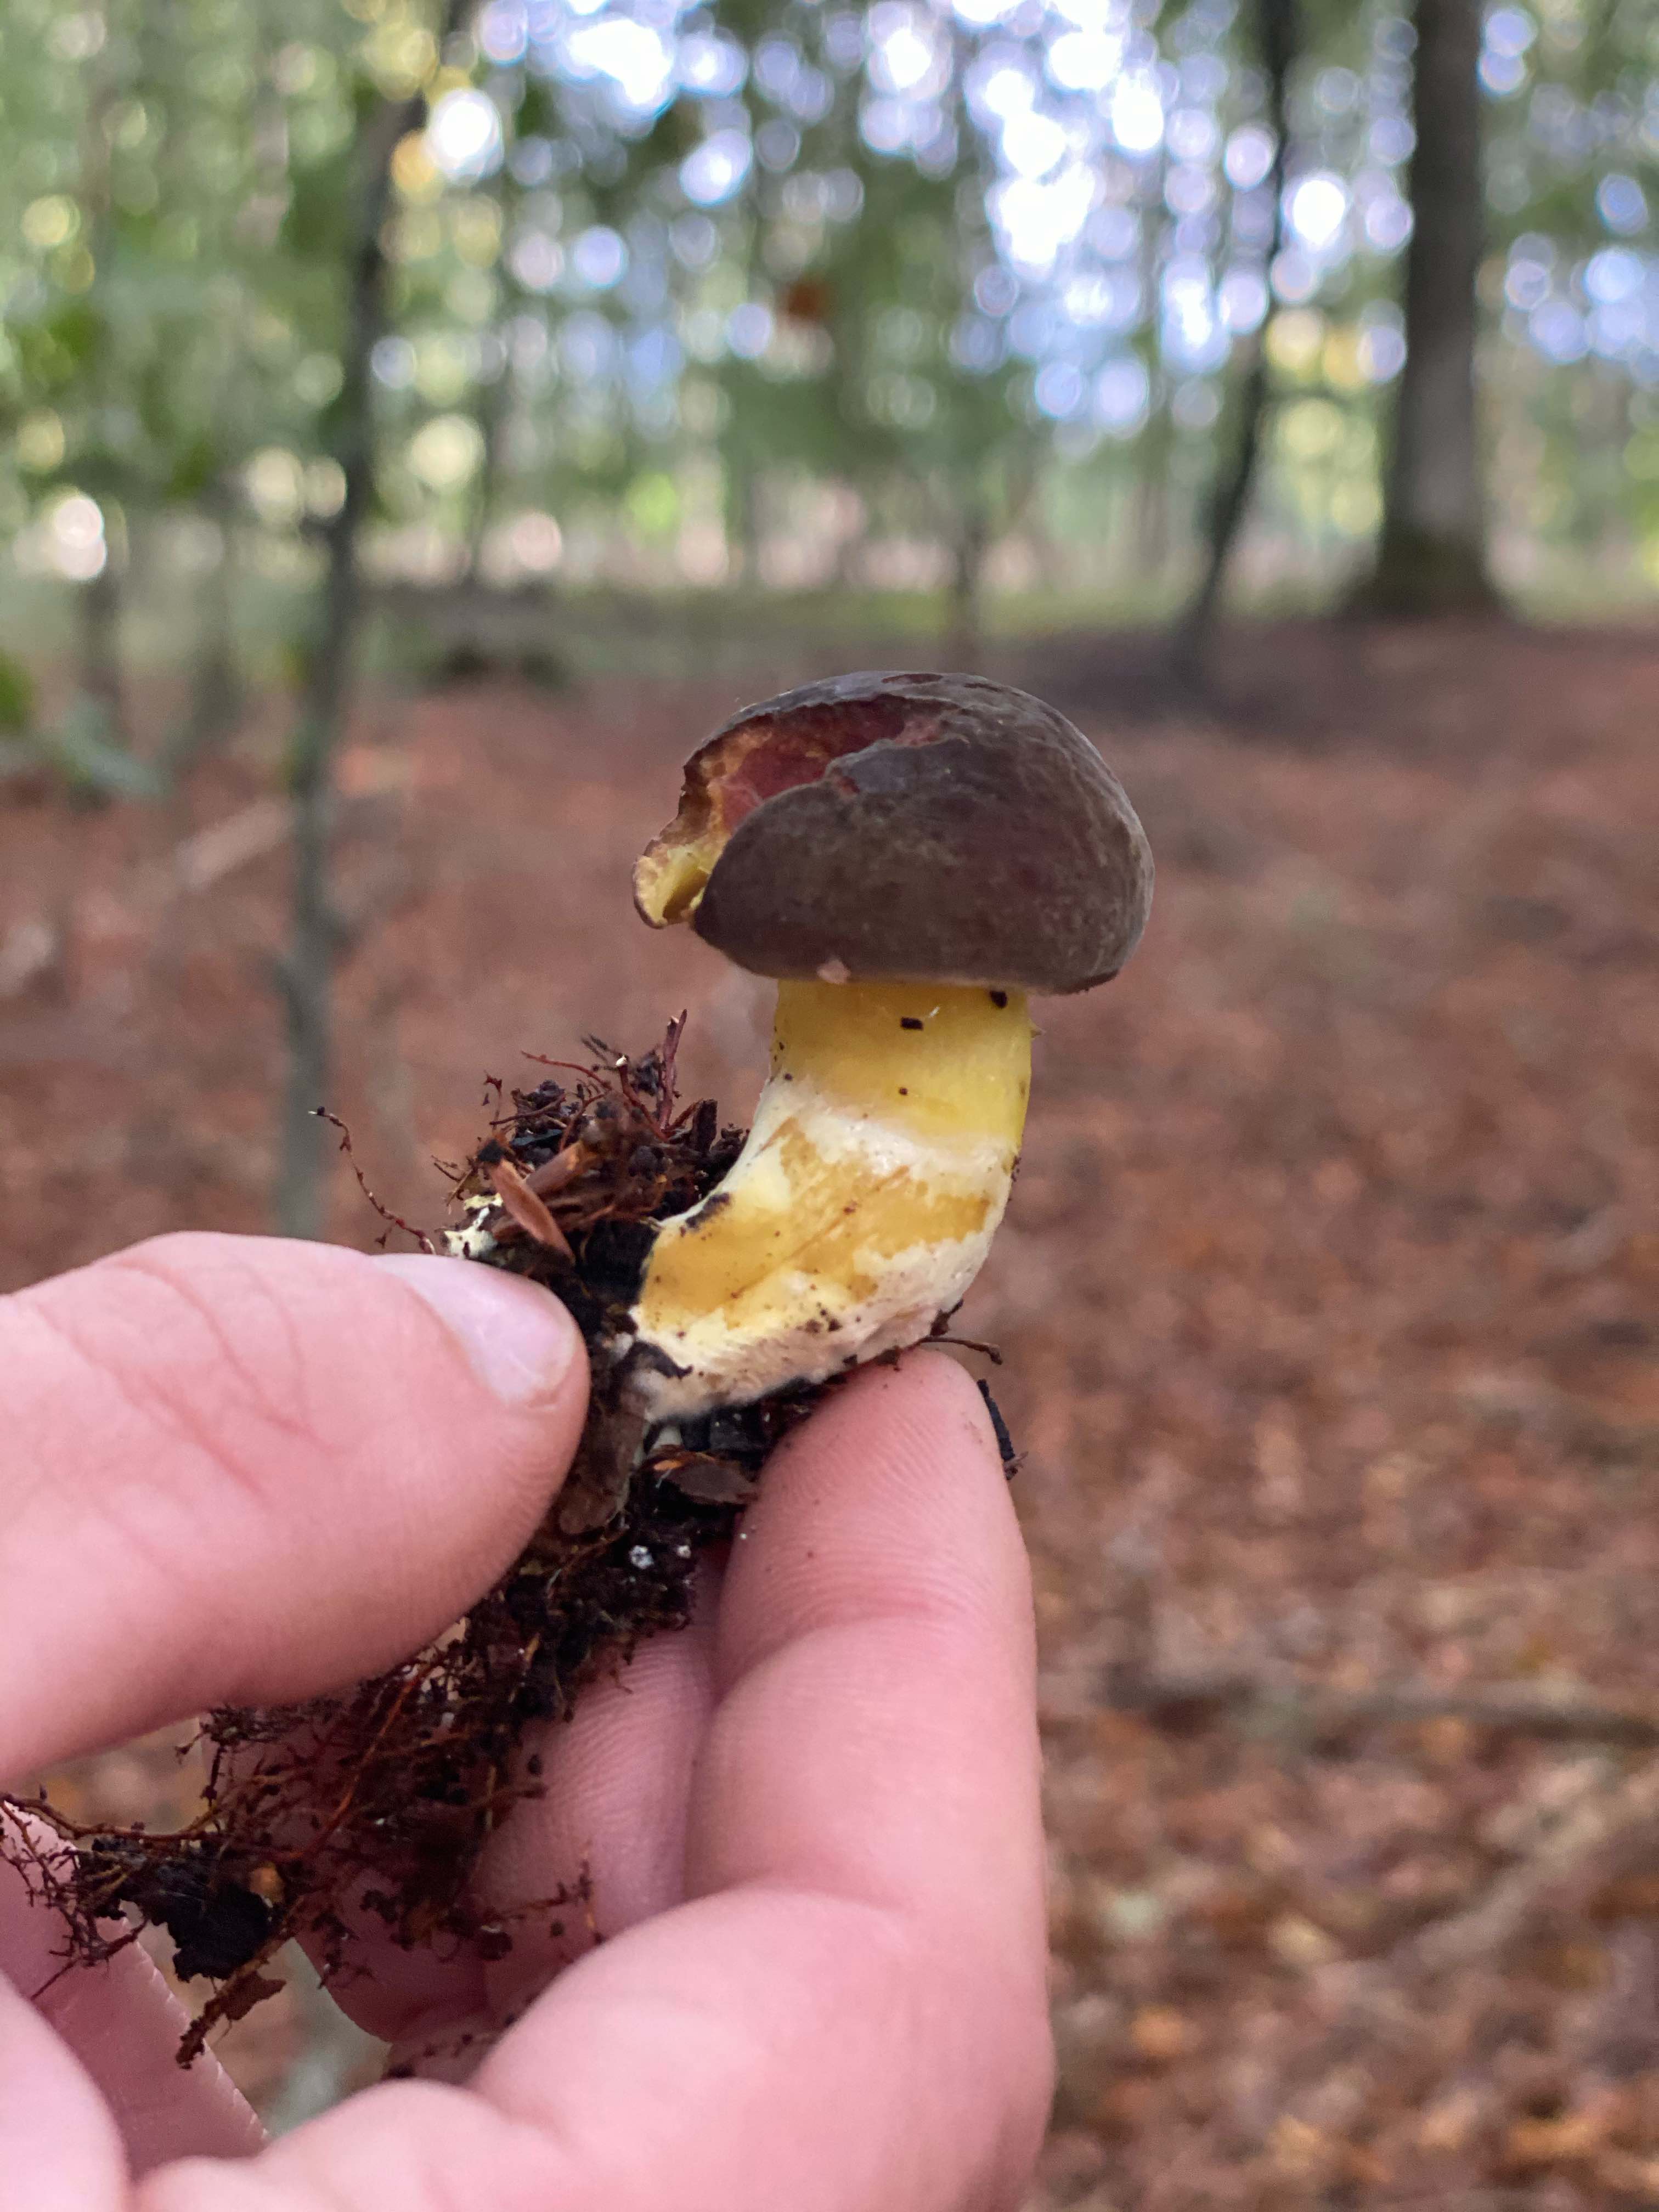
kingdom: Fungi
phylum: Basidiomycota
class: Agaricomycetes
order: Boletales
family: Boletaceae
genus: Xerocomellus
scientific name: Xerocomellus pruinatus
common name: dugget rørhat
